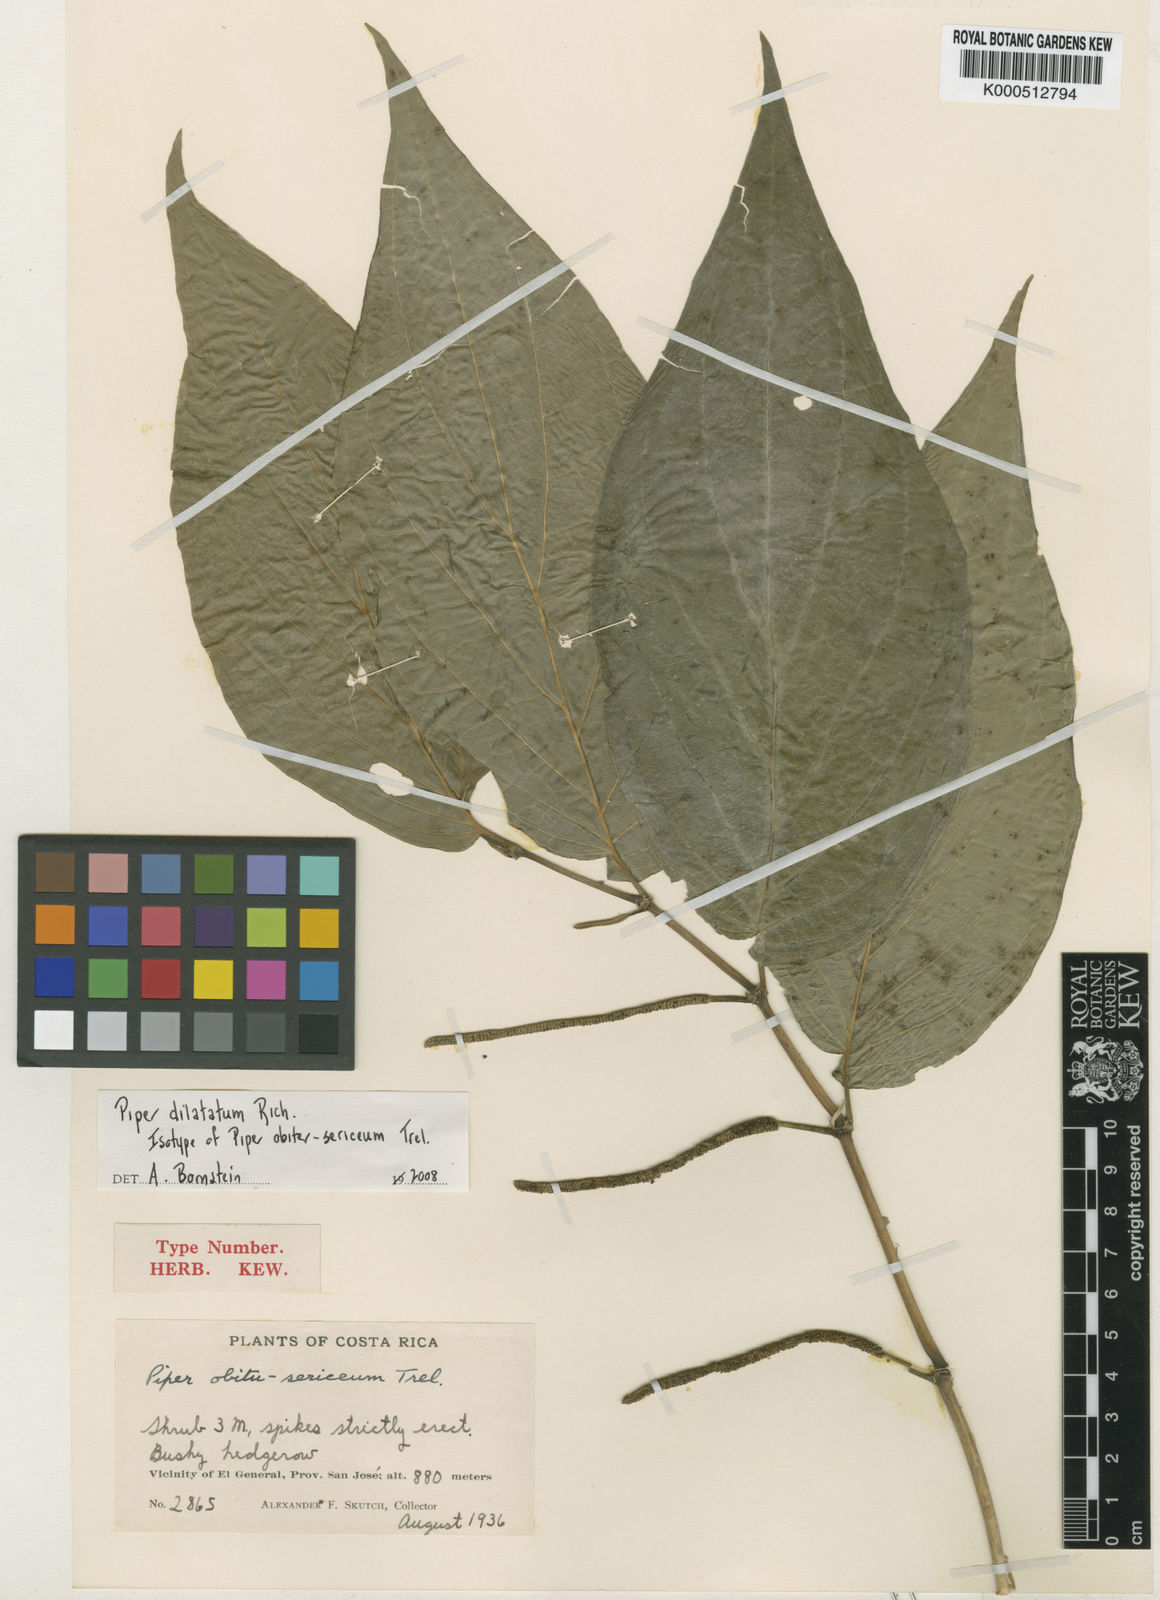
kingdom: Plantae
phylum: Tracheophyta
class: Magnoliopsida
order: Piperales
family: Piperaceae
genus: Piper
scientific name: Piper dilatatum
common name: Higuillo
